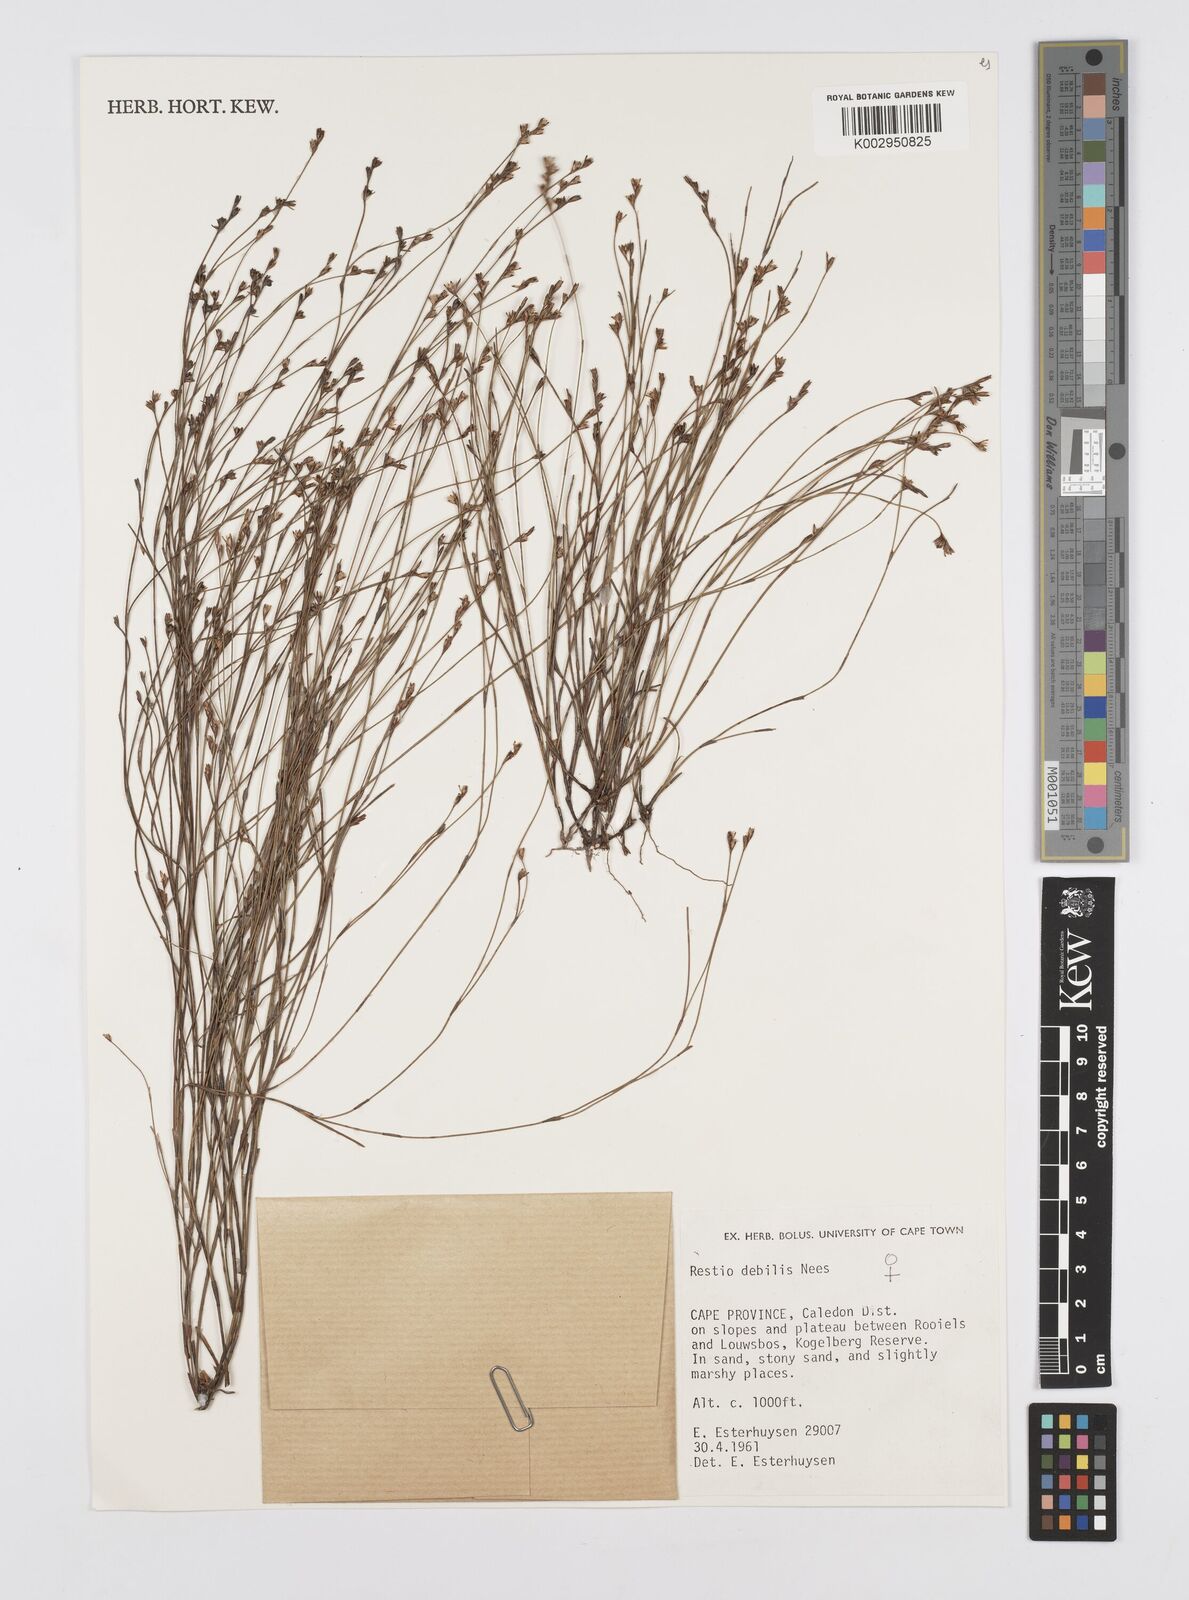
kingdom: Plantae
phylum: Tracheophyta
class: Liliopsida
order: Poales
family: Restionaceae
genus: Restio
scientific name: Restio debilis
